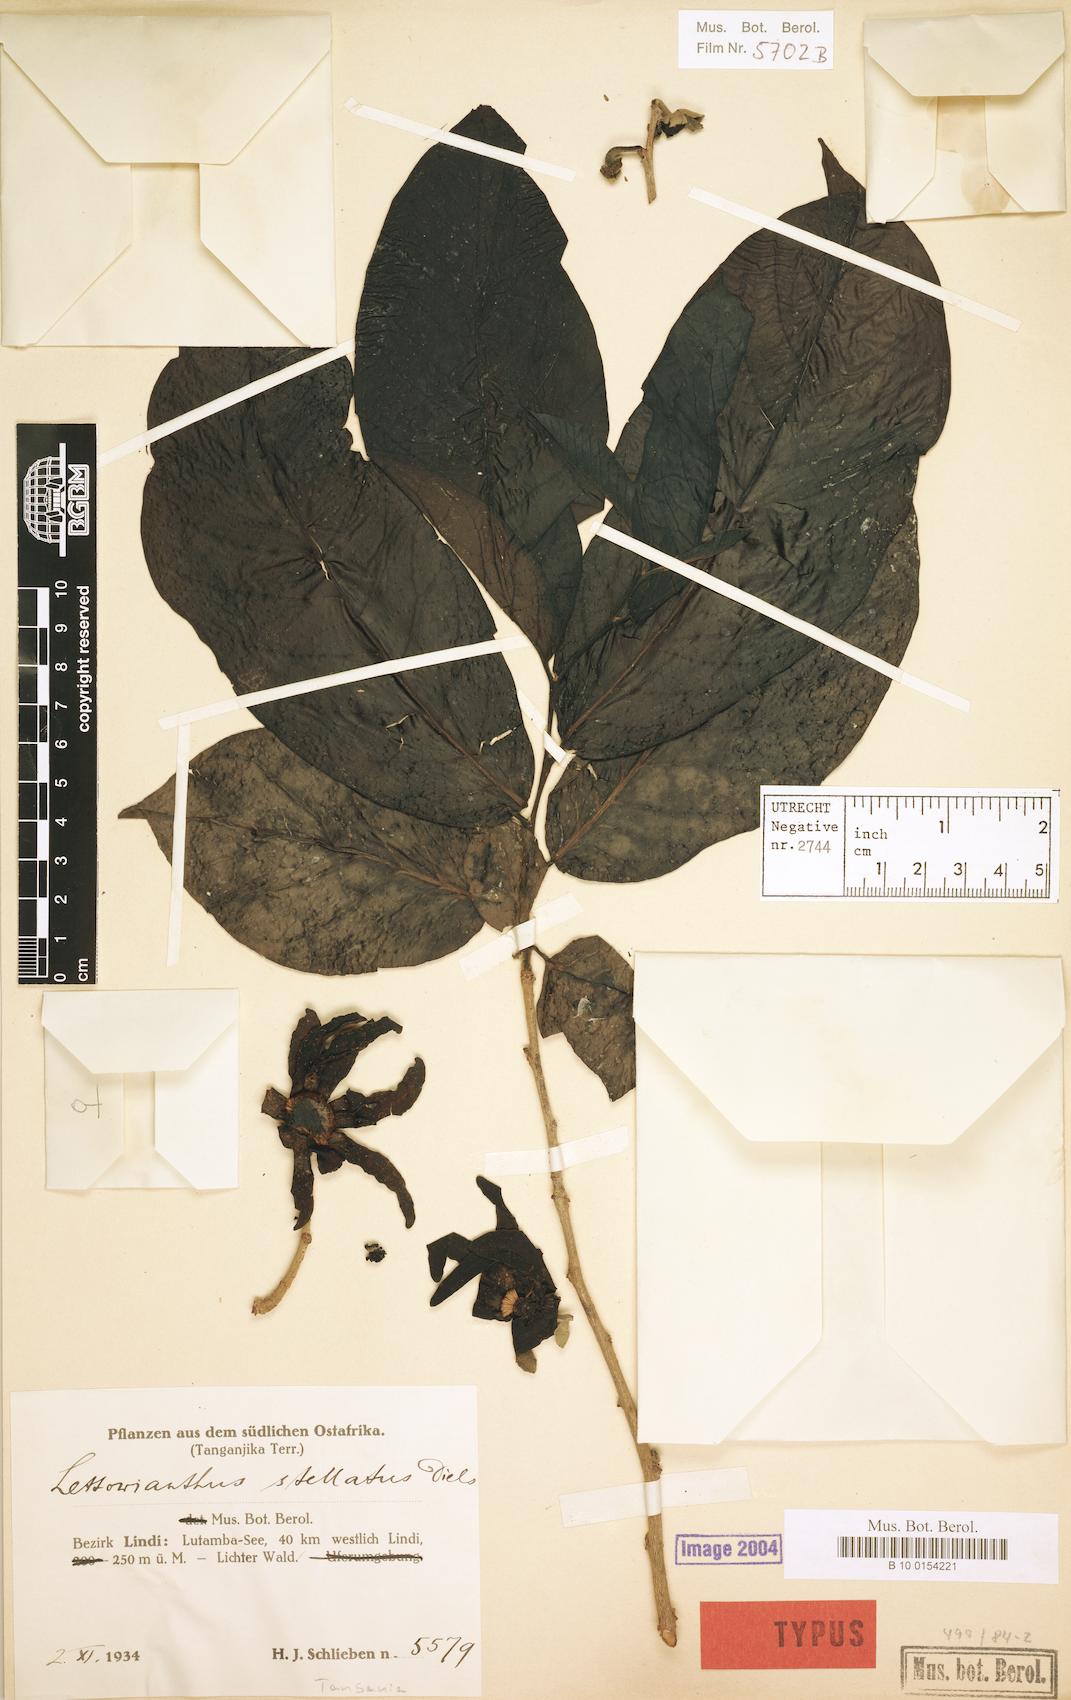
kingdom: Plantae
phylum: Tracheophyta
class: Magnoliopsida
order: Magnoliales
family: Annonaceae
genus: Lettowianthus
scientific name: Lettowianthus stellatus
